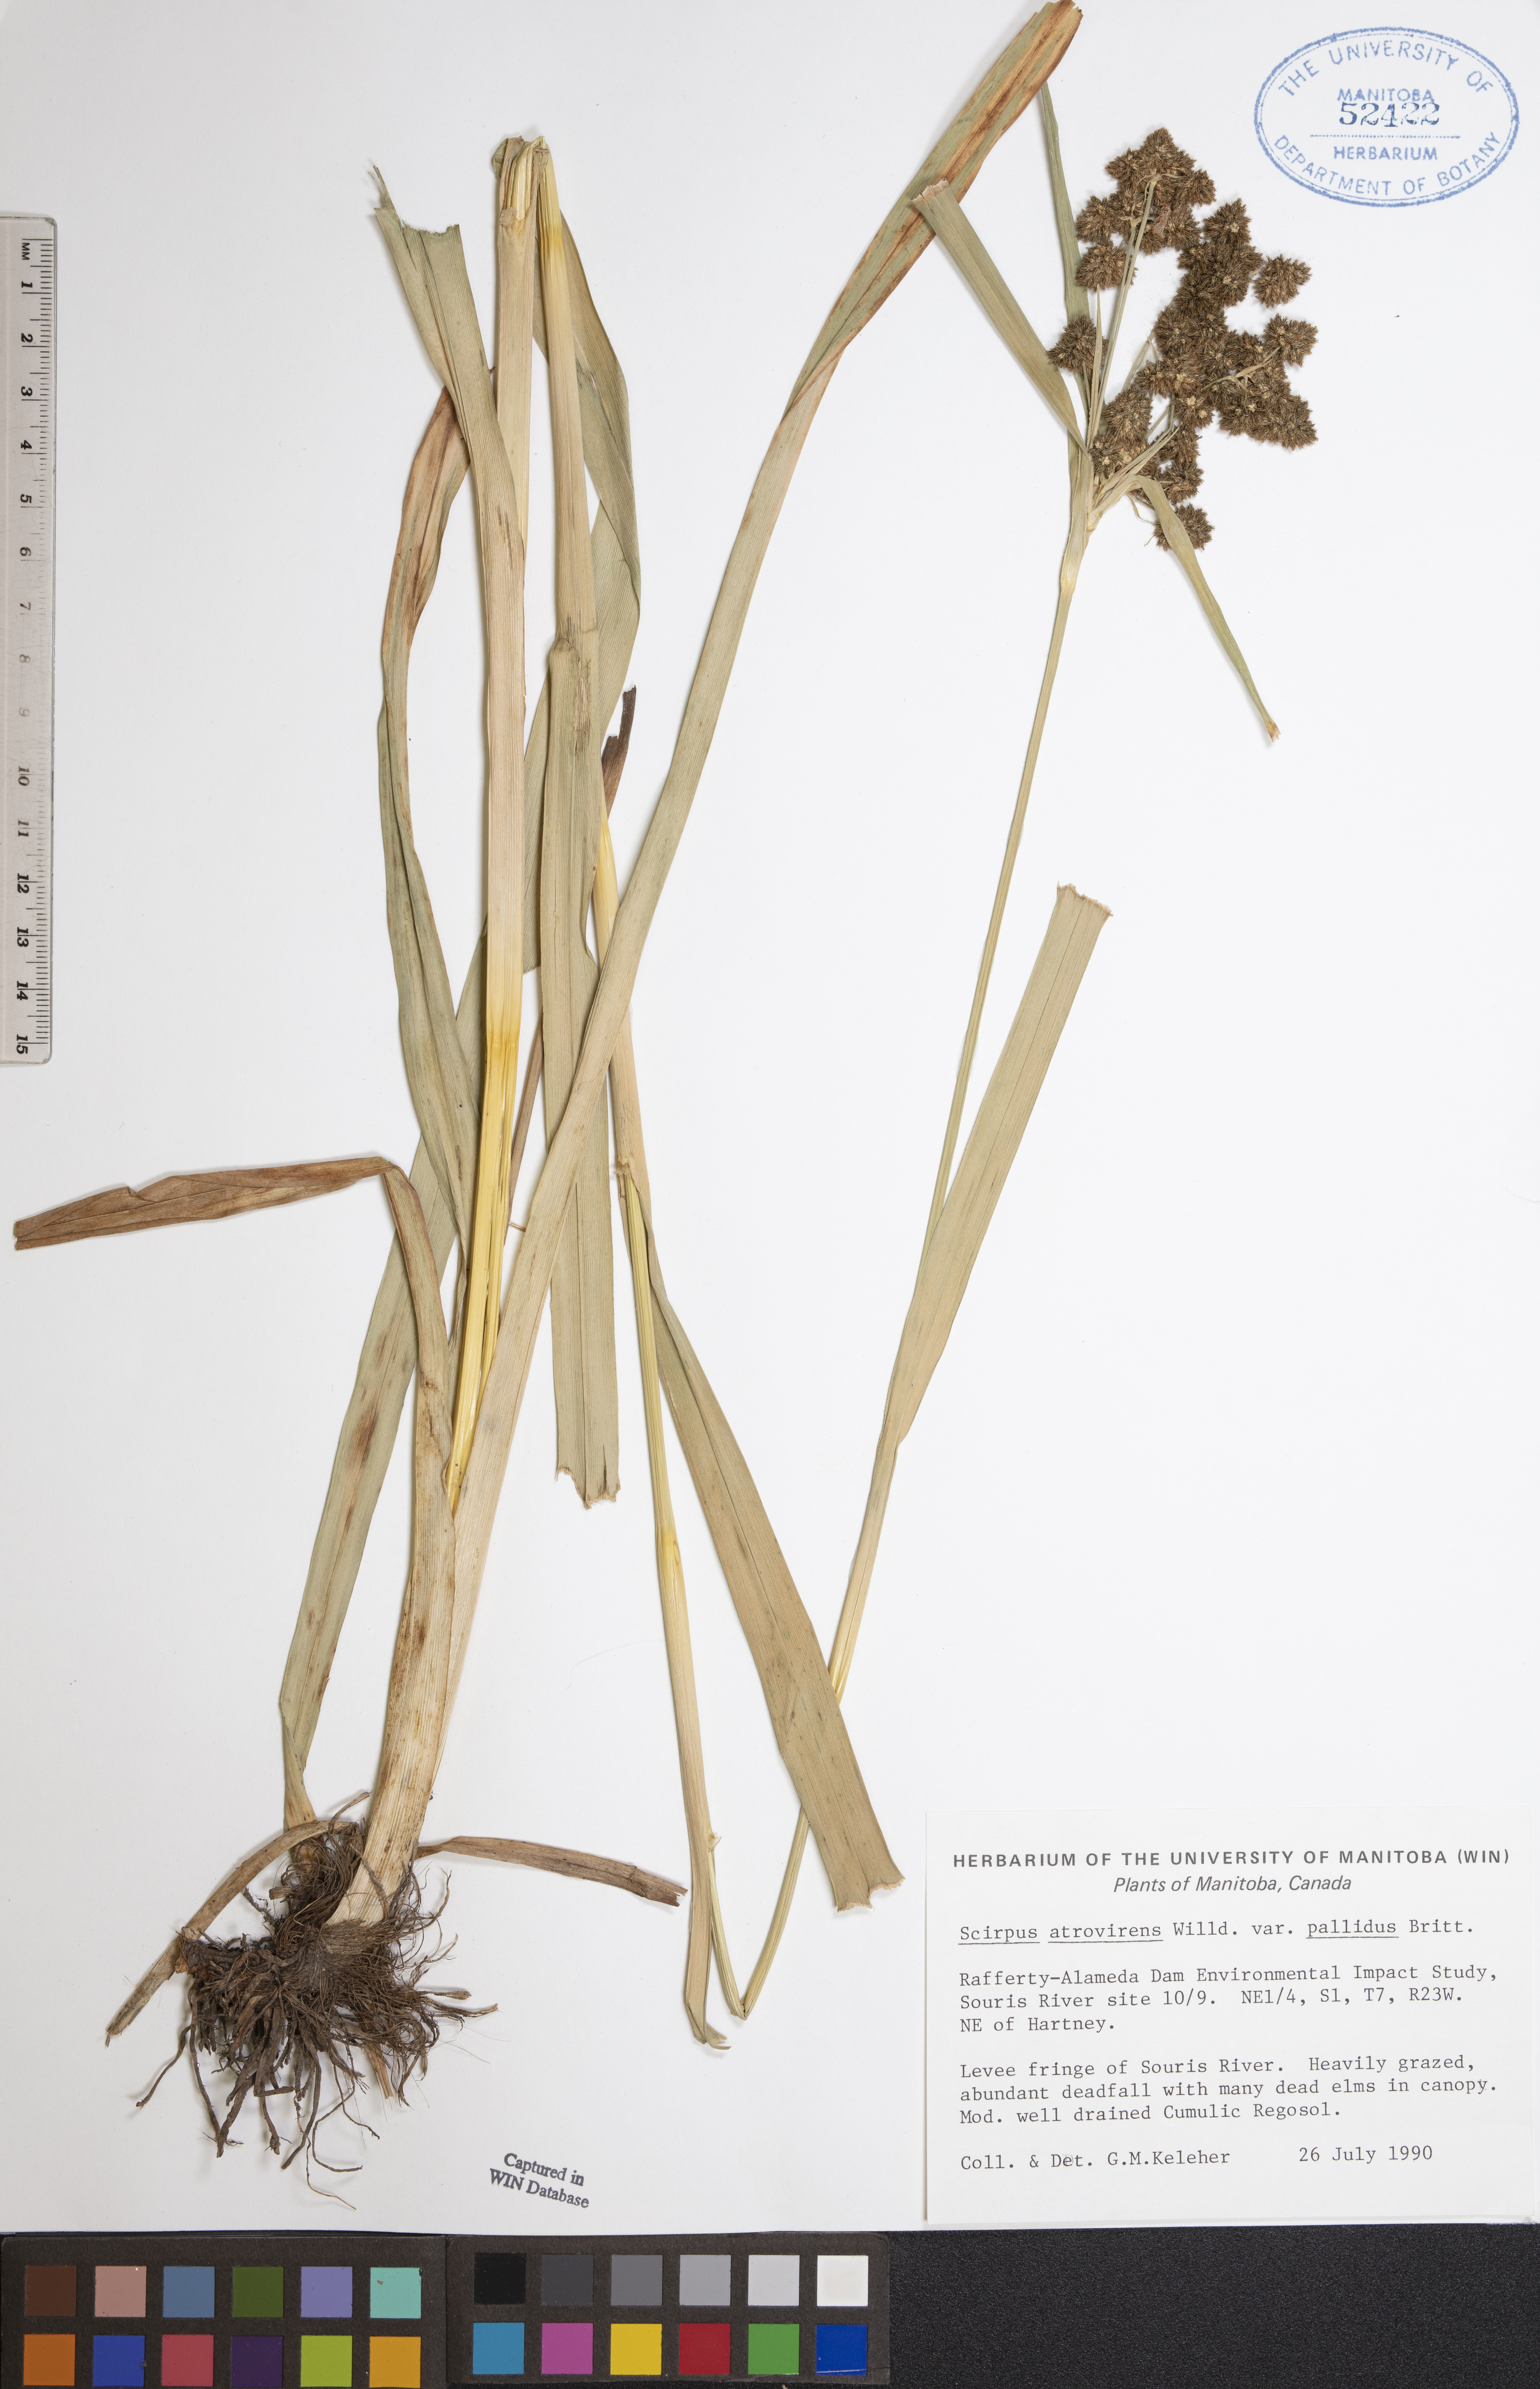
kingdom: Plantae
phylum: Tracheophyta
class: Liliopsida
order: Poales
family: Cyperaceae
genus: Scirpus
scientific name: Scirpus pallidus
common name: Cloaked bulrush
